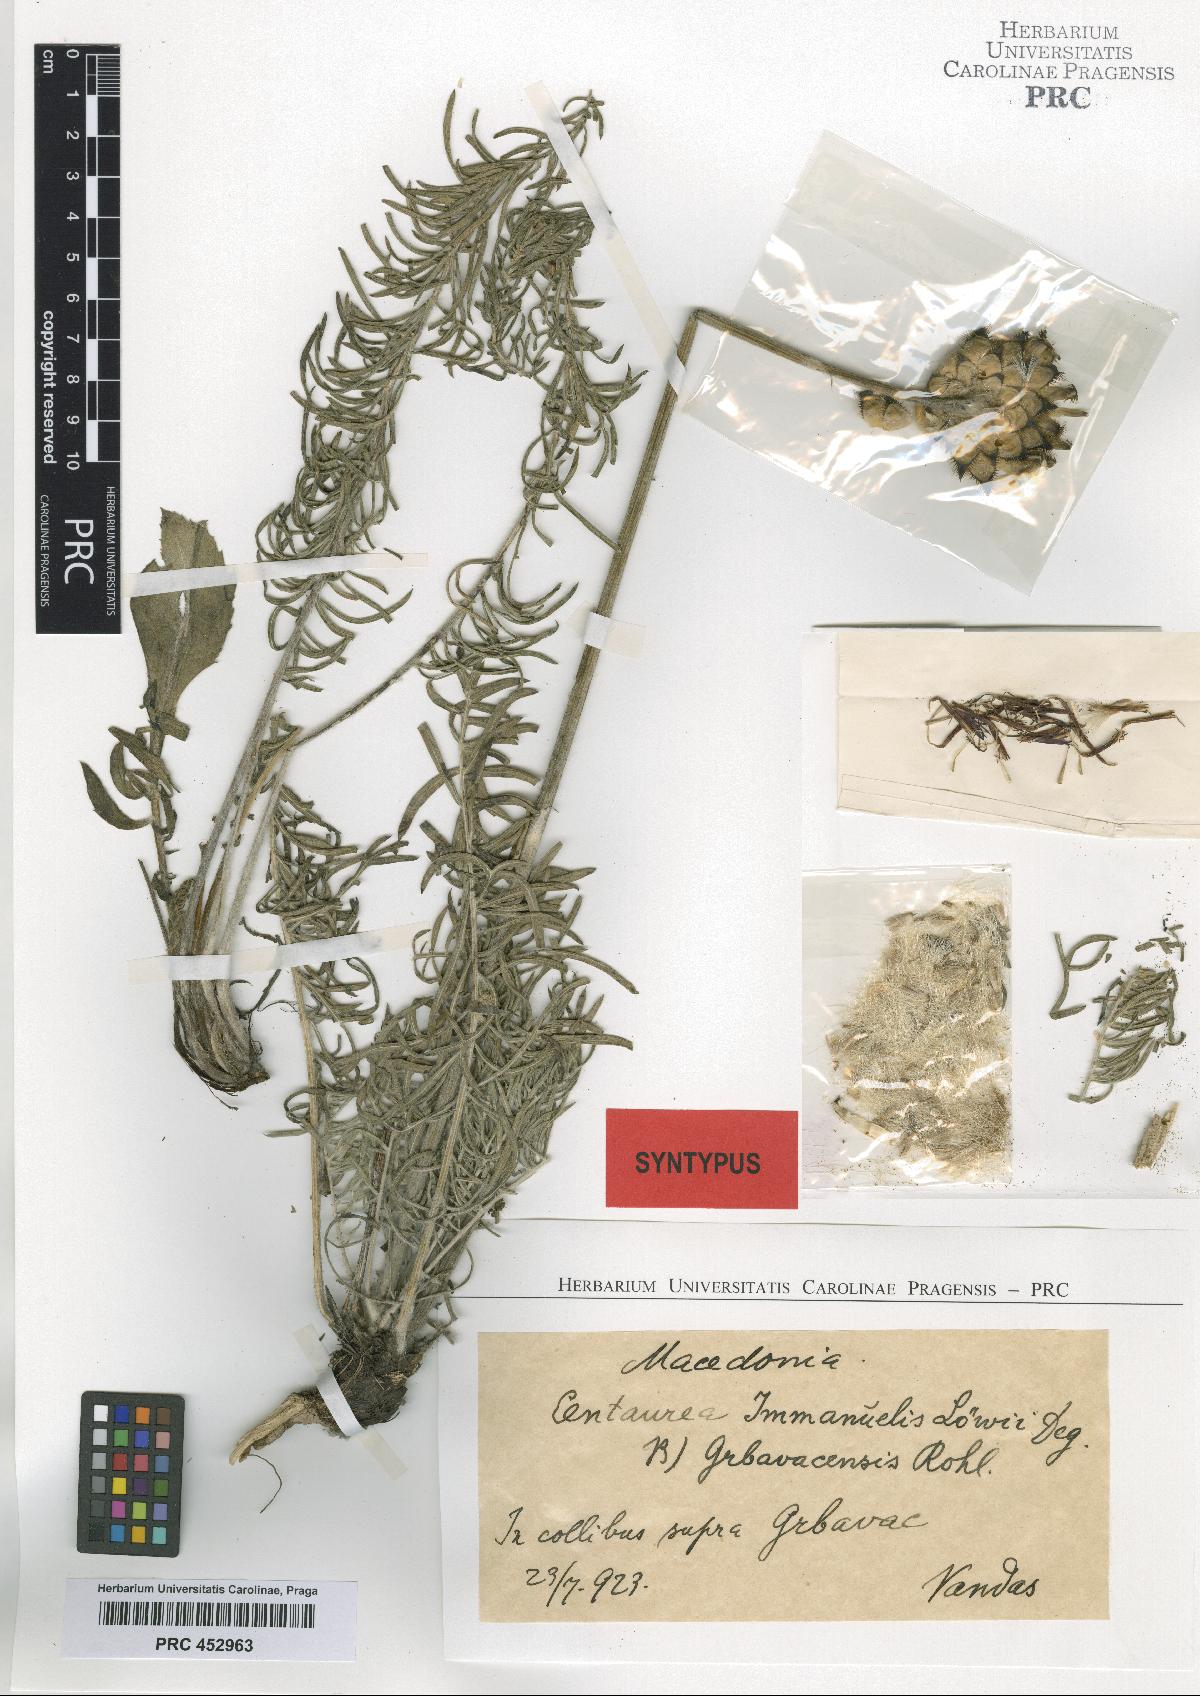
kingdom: Plantae
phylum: Tracheophyta
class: Magnoliopsida
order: Asterales
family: Asteraceae
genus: Centaurea
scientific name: Centaurea grbavacensis
